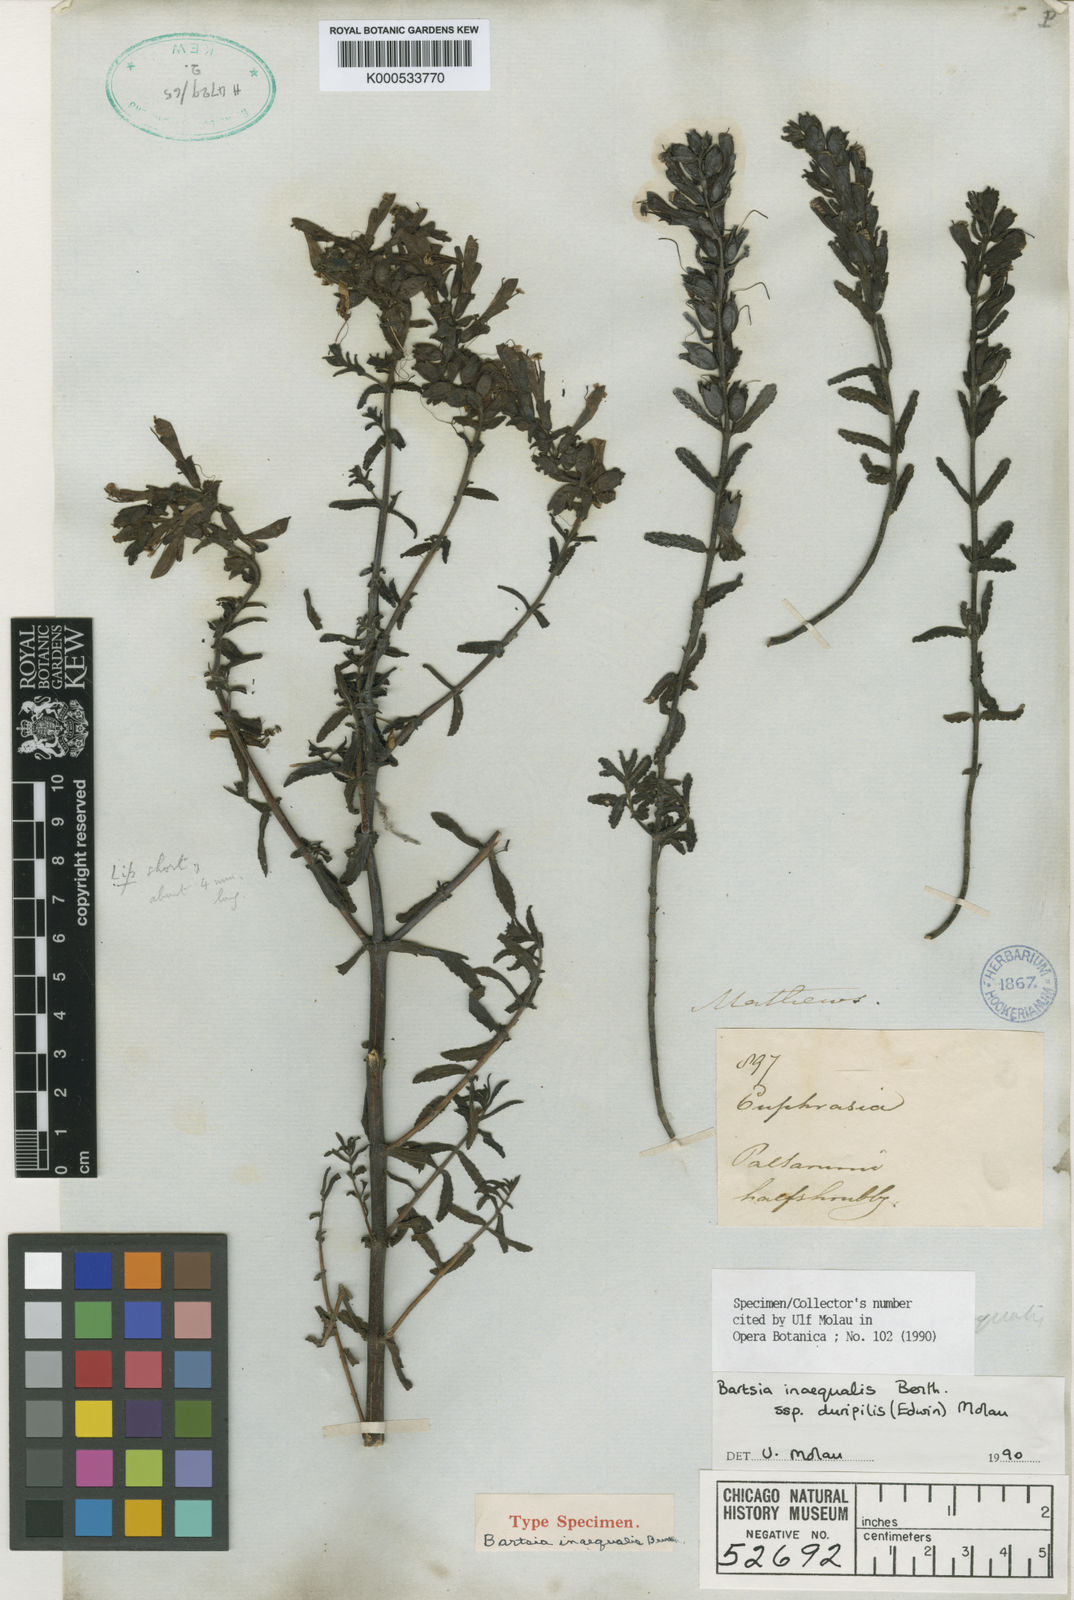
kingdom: Plantae
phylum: Tracheophyta
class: Magnoliopsida
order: Lamiales
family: Orobanchaceae
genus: Neobartsia
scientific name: Neobartsia inaequalis
